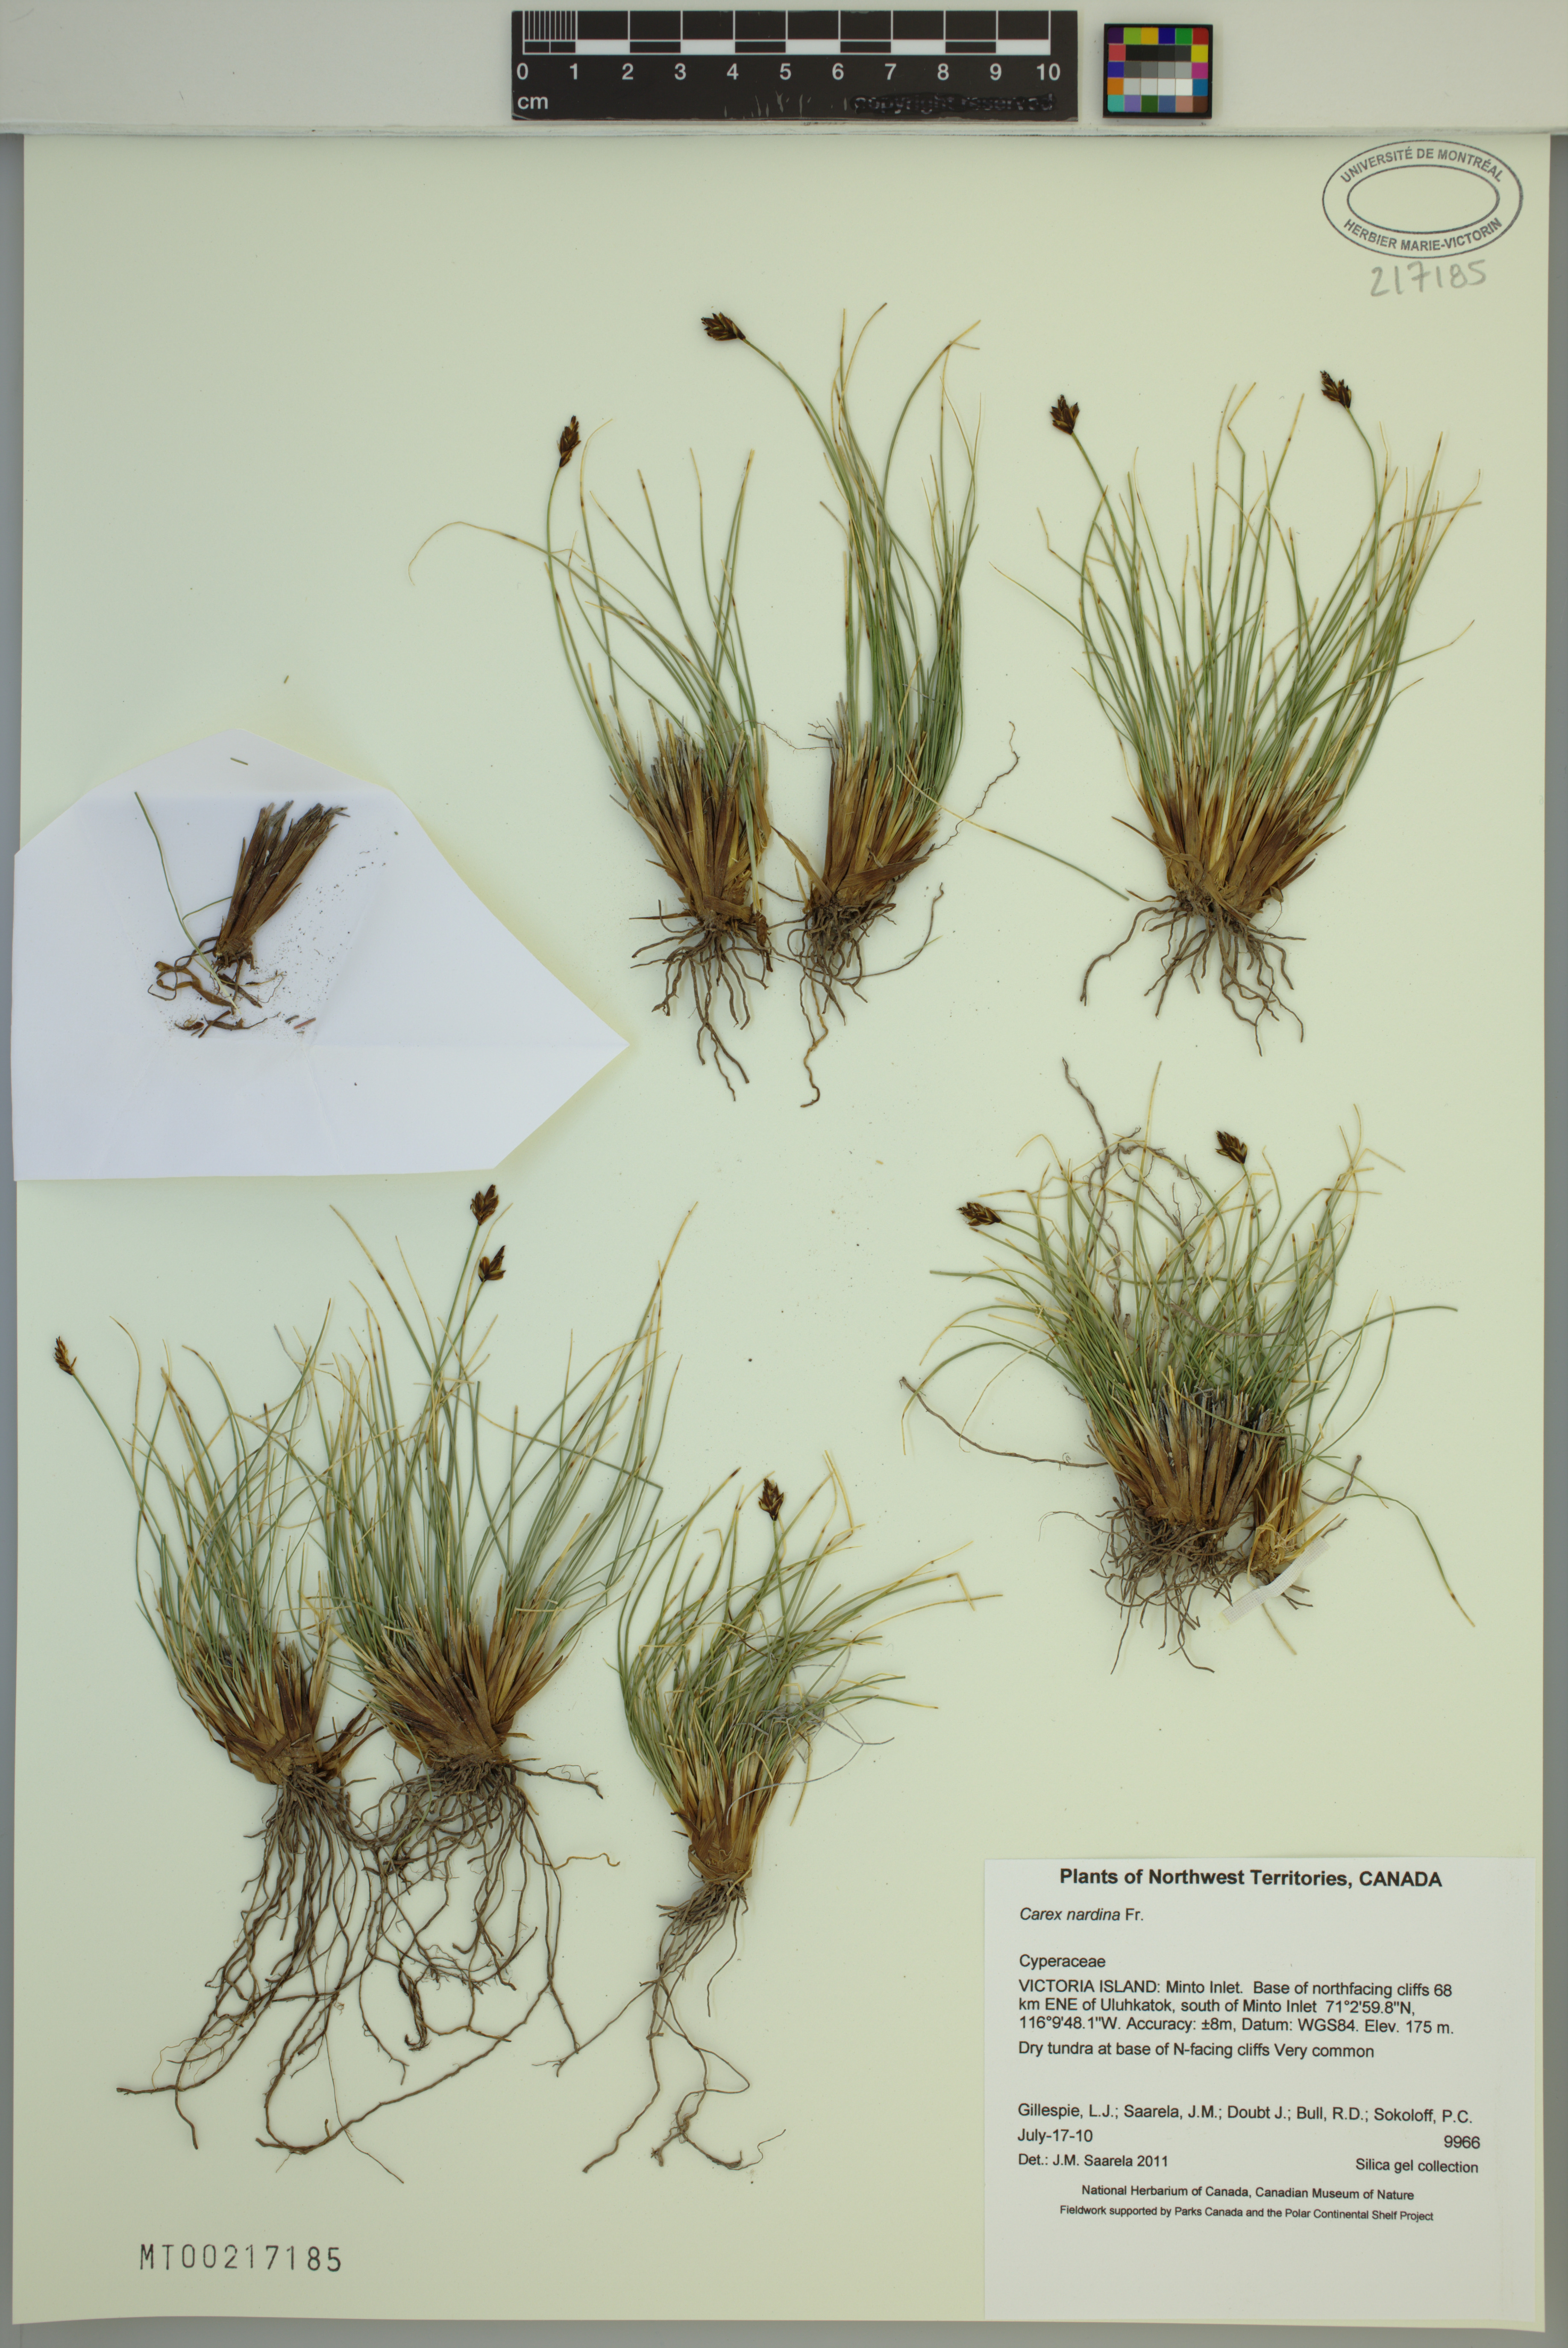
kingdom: Plantae
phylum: Tracheophyta
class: Liliopsida
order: Poales
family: Cyperaceae
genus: Carex
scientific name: Carex nardina
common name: Nard sedge
